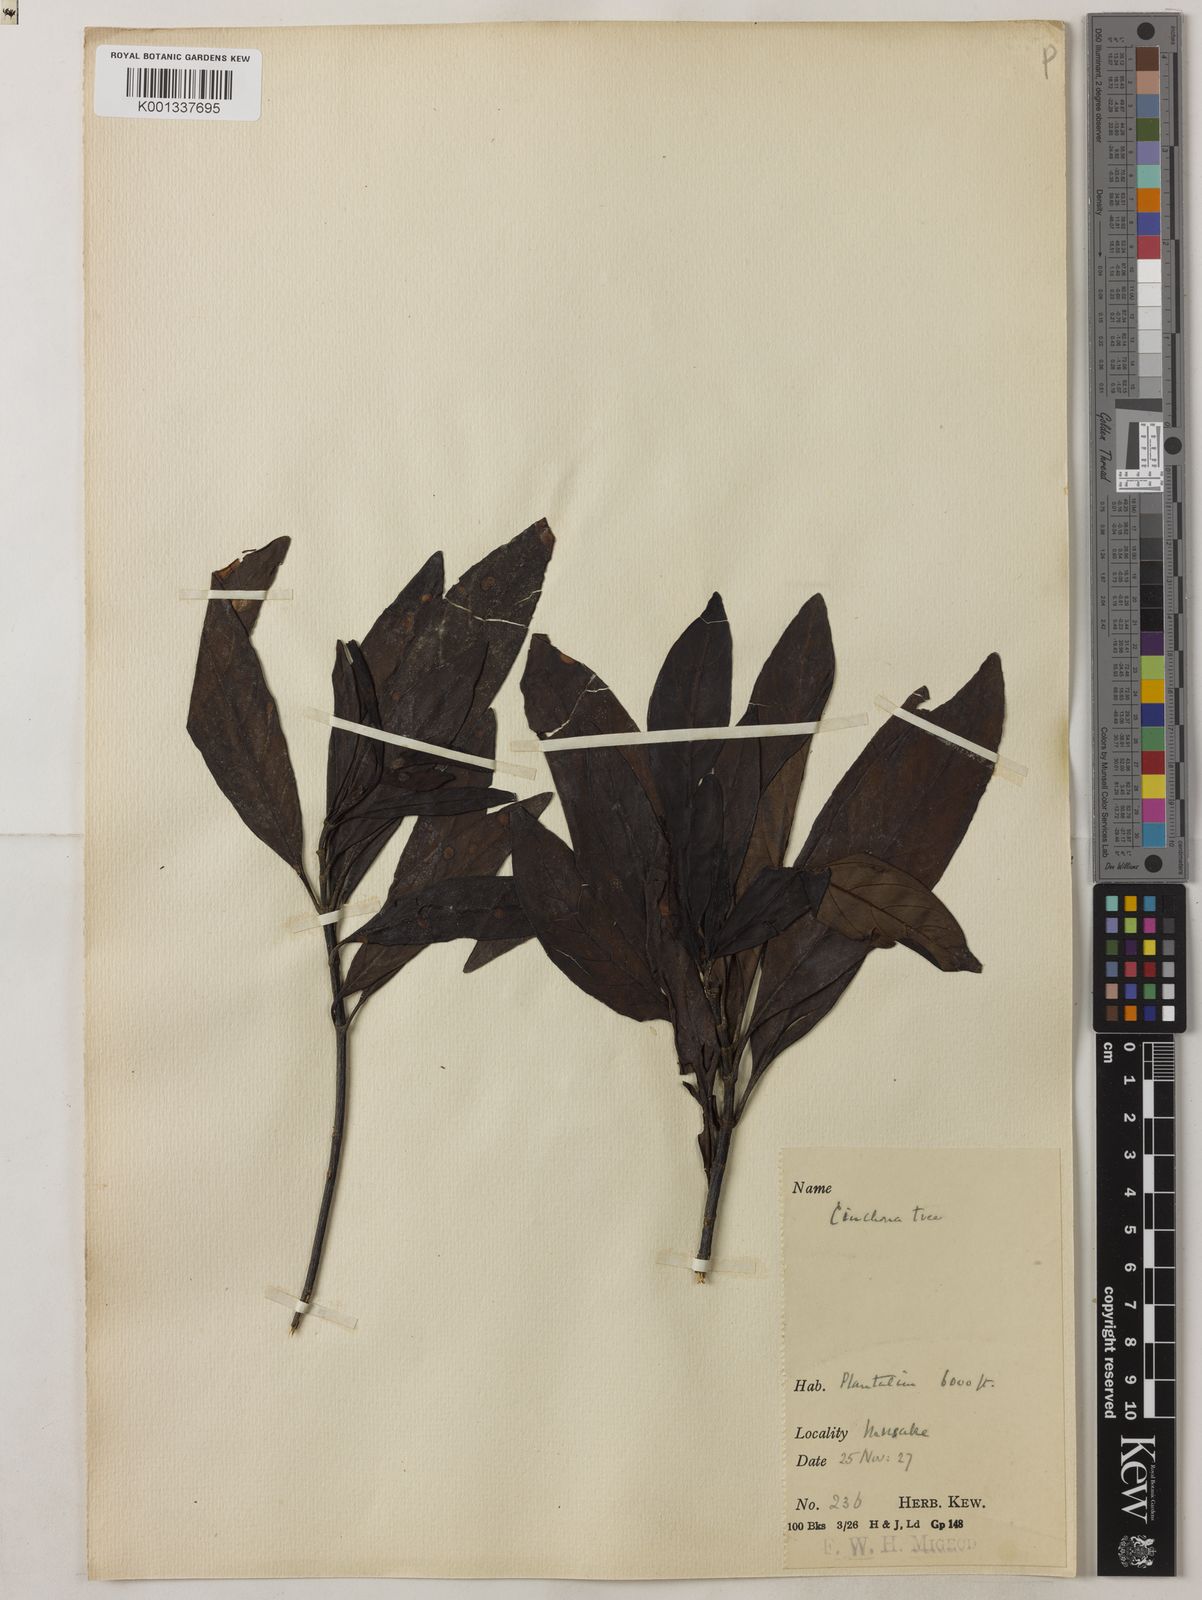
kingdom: Plantae
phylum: Tracheophyta
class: Magnoliopsida
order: Gentianales
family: Rubiaceae
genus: Cinchona
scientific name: Cinchona calisaya
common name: Ledgerbark
